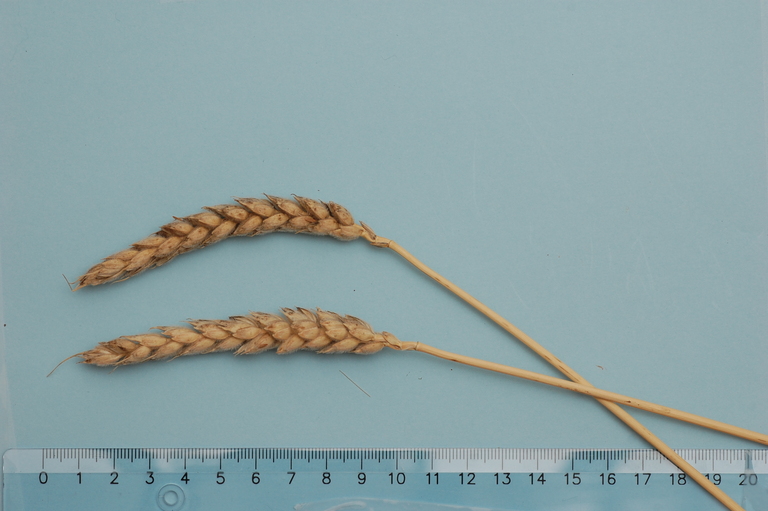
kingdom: Plantae
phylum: Tracheophyta
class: Liliopsida
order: Poales
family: Poaceae
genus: Triticum
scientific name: Triticum aestivum
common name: Common wheat
